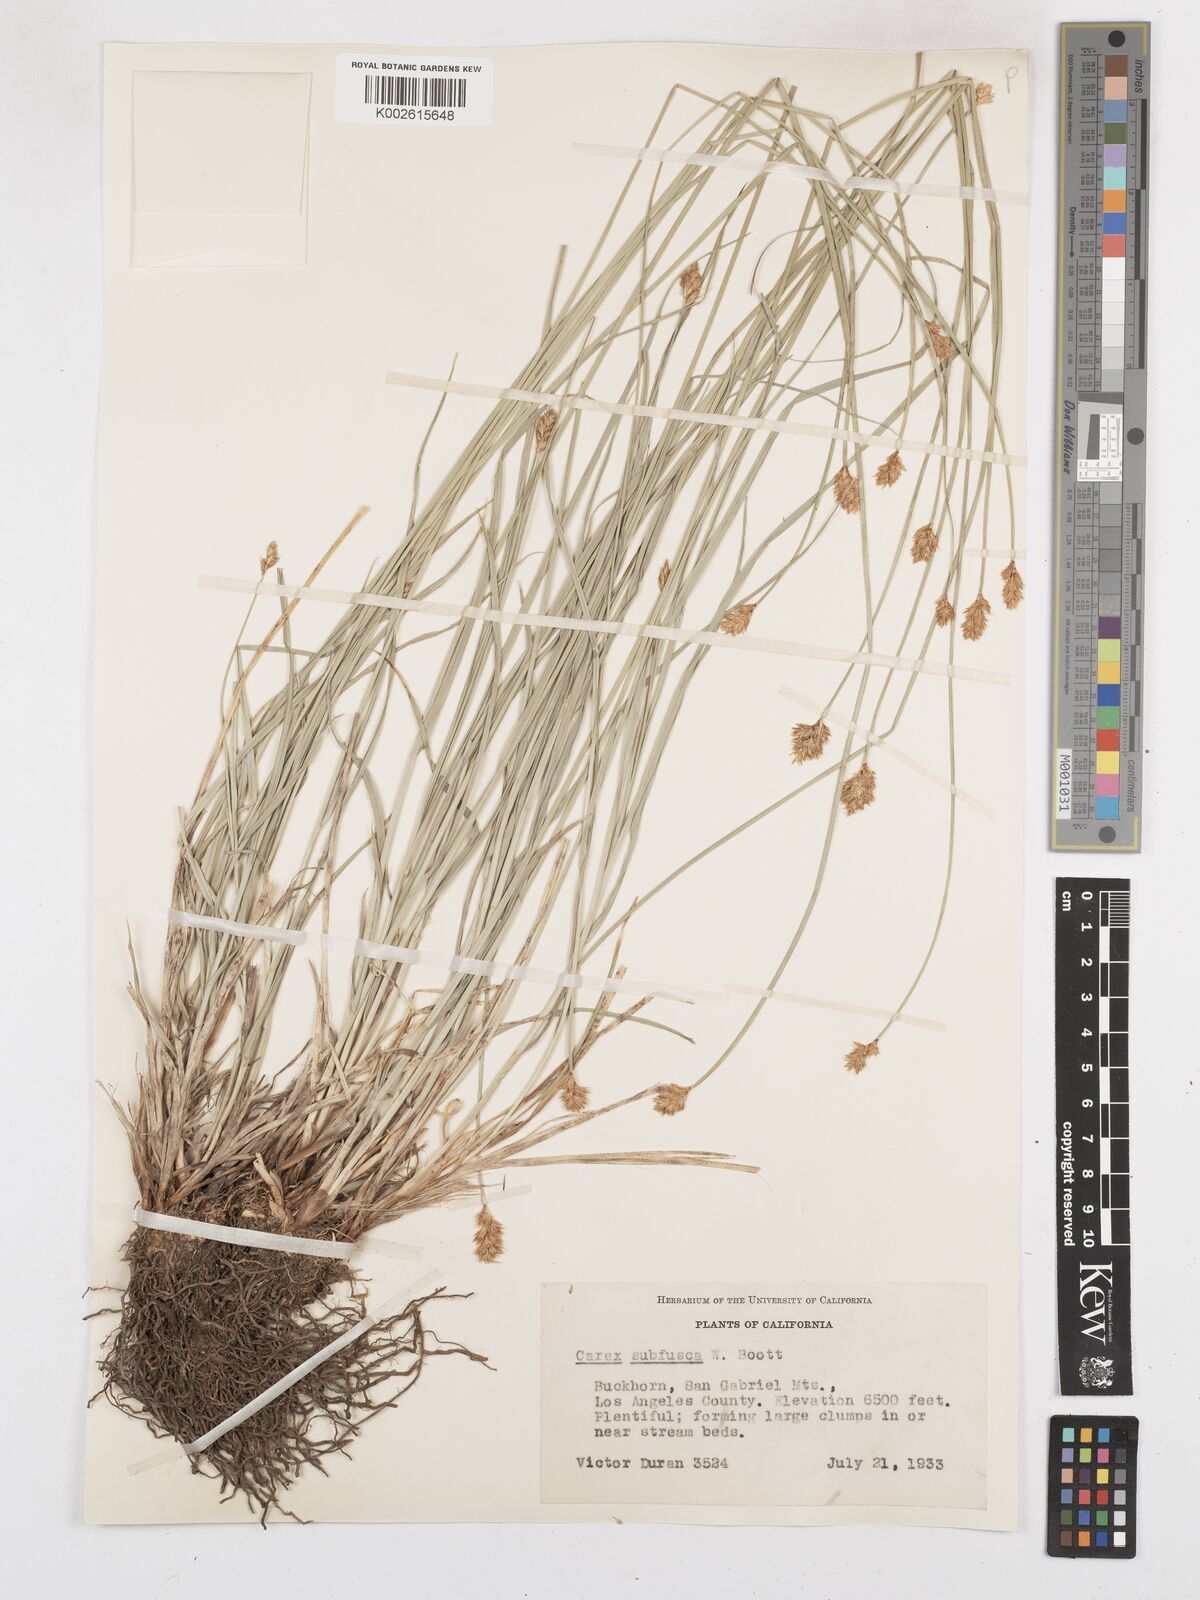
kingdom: Plantae
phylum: Tracheophyta
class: Liliopsida
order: Poales
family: Cyperaceae
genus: Carex
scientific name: Carex subfusca
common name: Brown sedge
